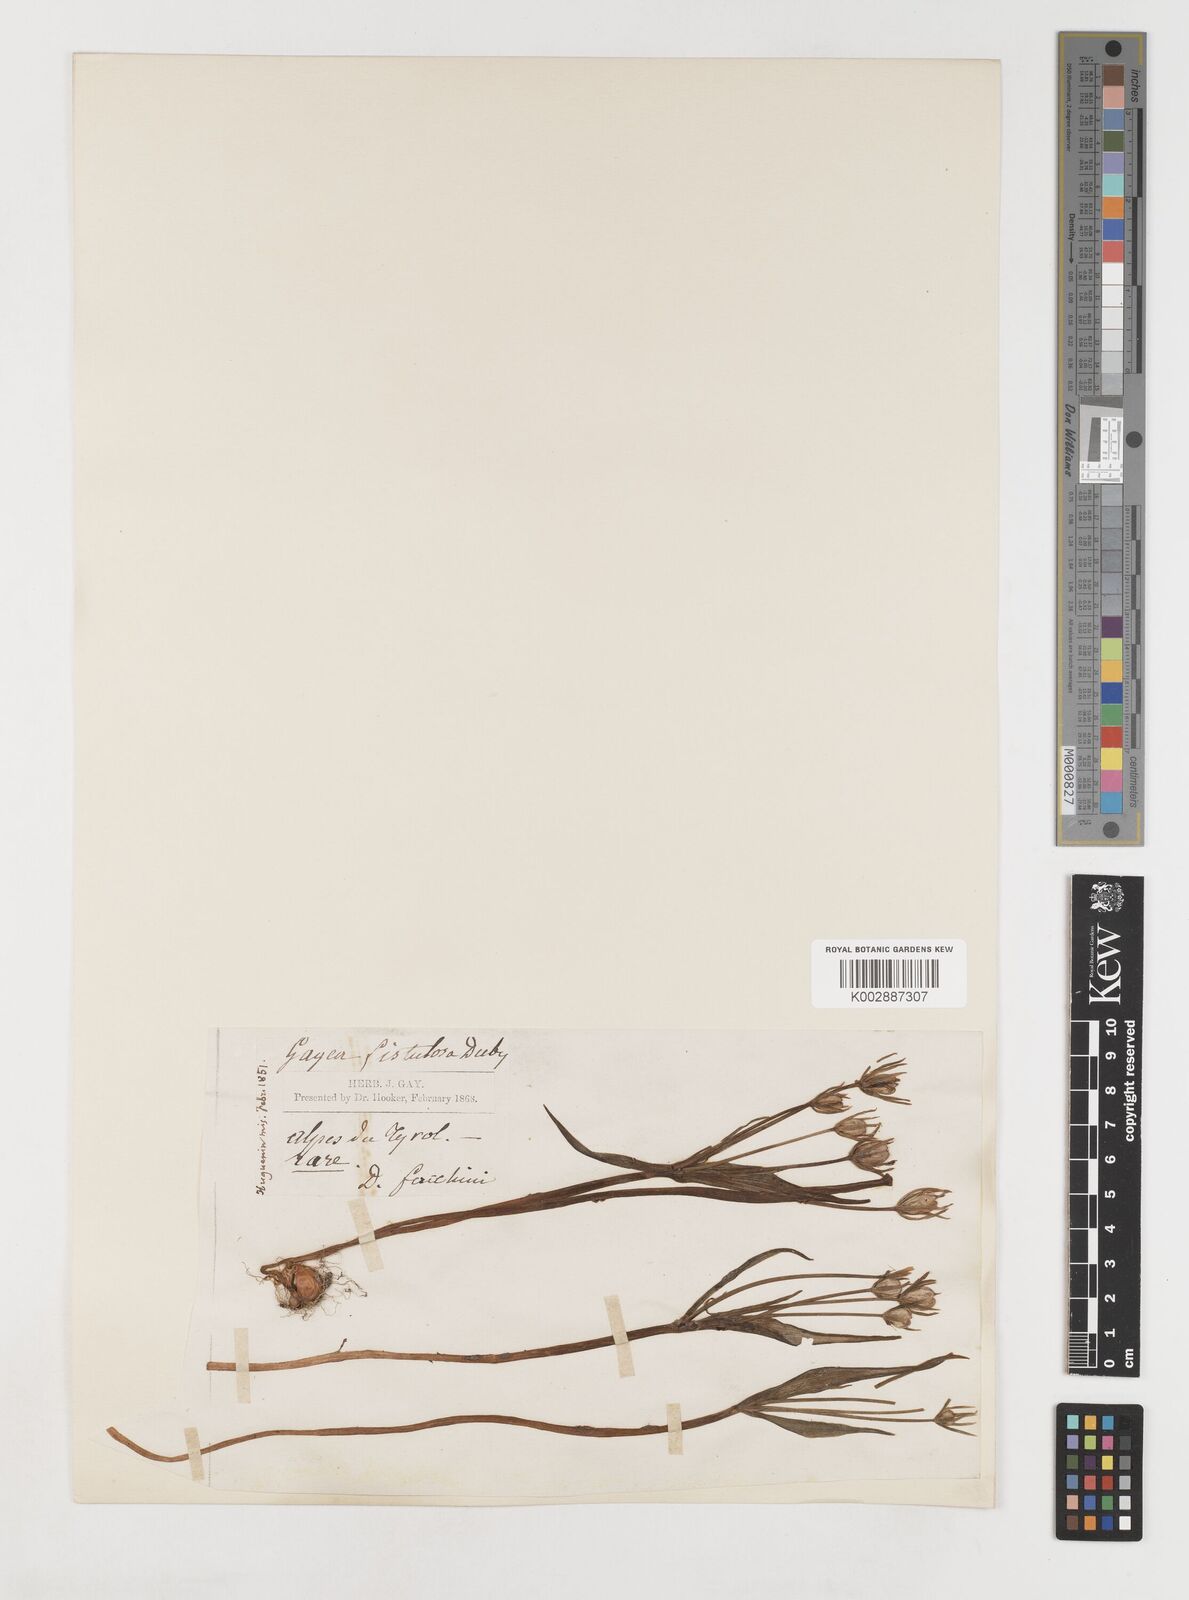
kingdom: Plantae
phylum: Tracheophyta
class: Liliopsida
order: Liliales
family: Liliaceae
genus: Gagea
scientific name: Gagea bohemica
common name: Early star-of-bethlehem
